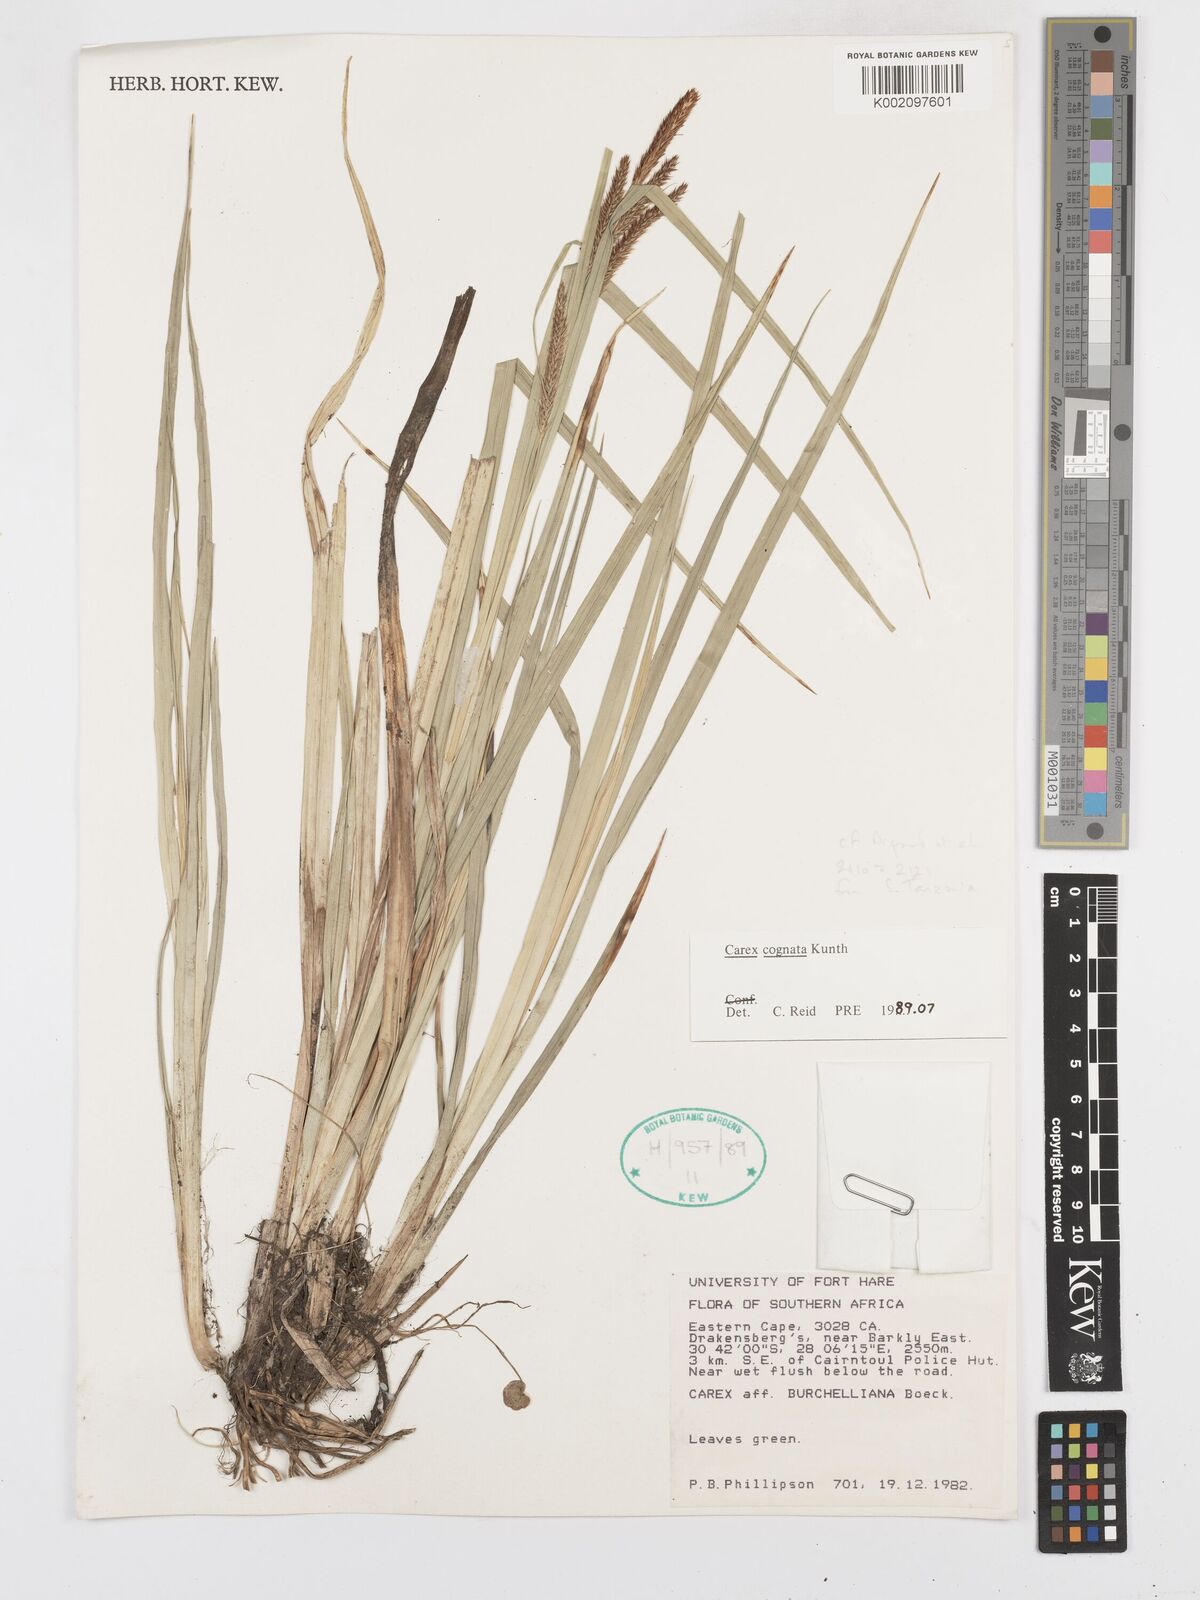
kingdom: Plantae
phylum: Tracheophyta
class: Liliopsida
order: Poales
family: Cyperaceae
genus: Carex
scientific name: Carex cognata
